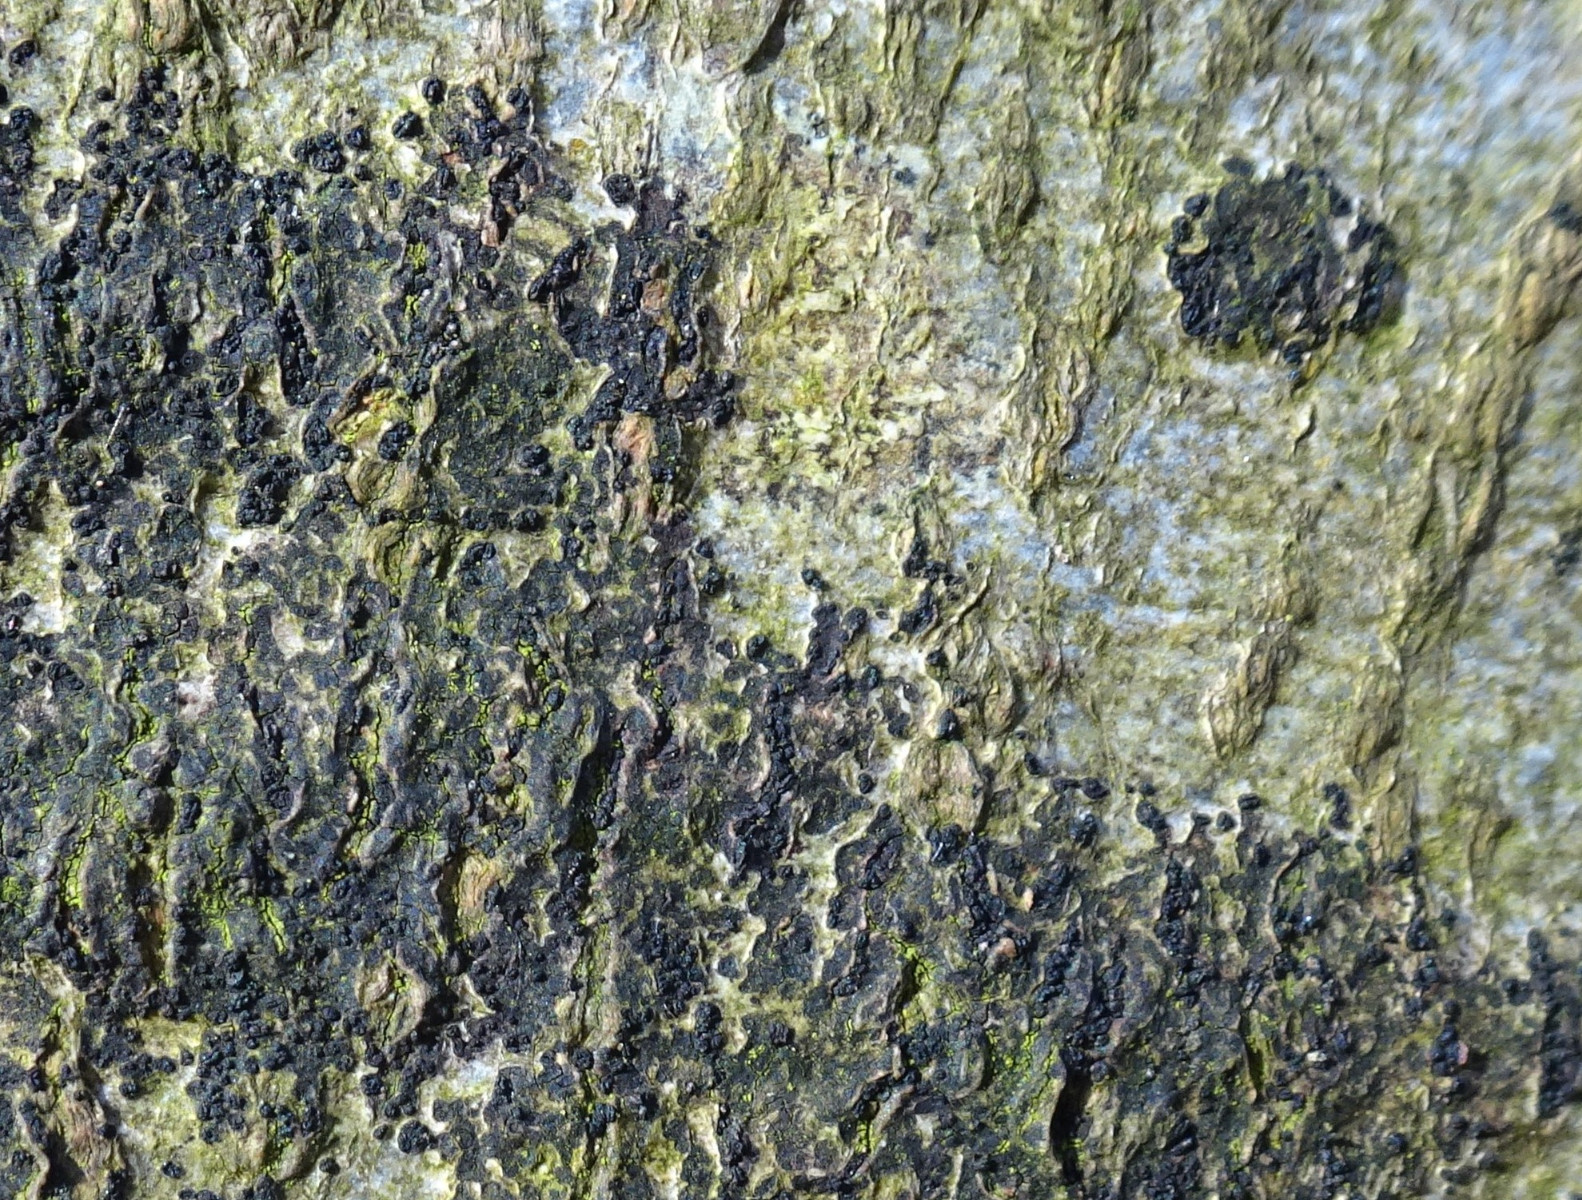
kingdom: Fungi
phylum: Ascomycota
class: Leotiomycetes
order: Rhytismatales
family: Ascodichaenaceae
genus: Ascodichaena
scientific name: Ascodichaena rugosa
